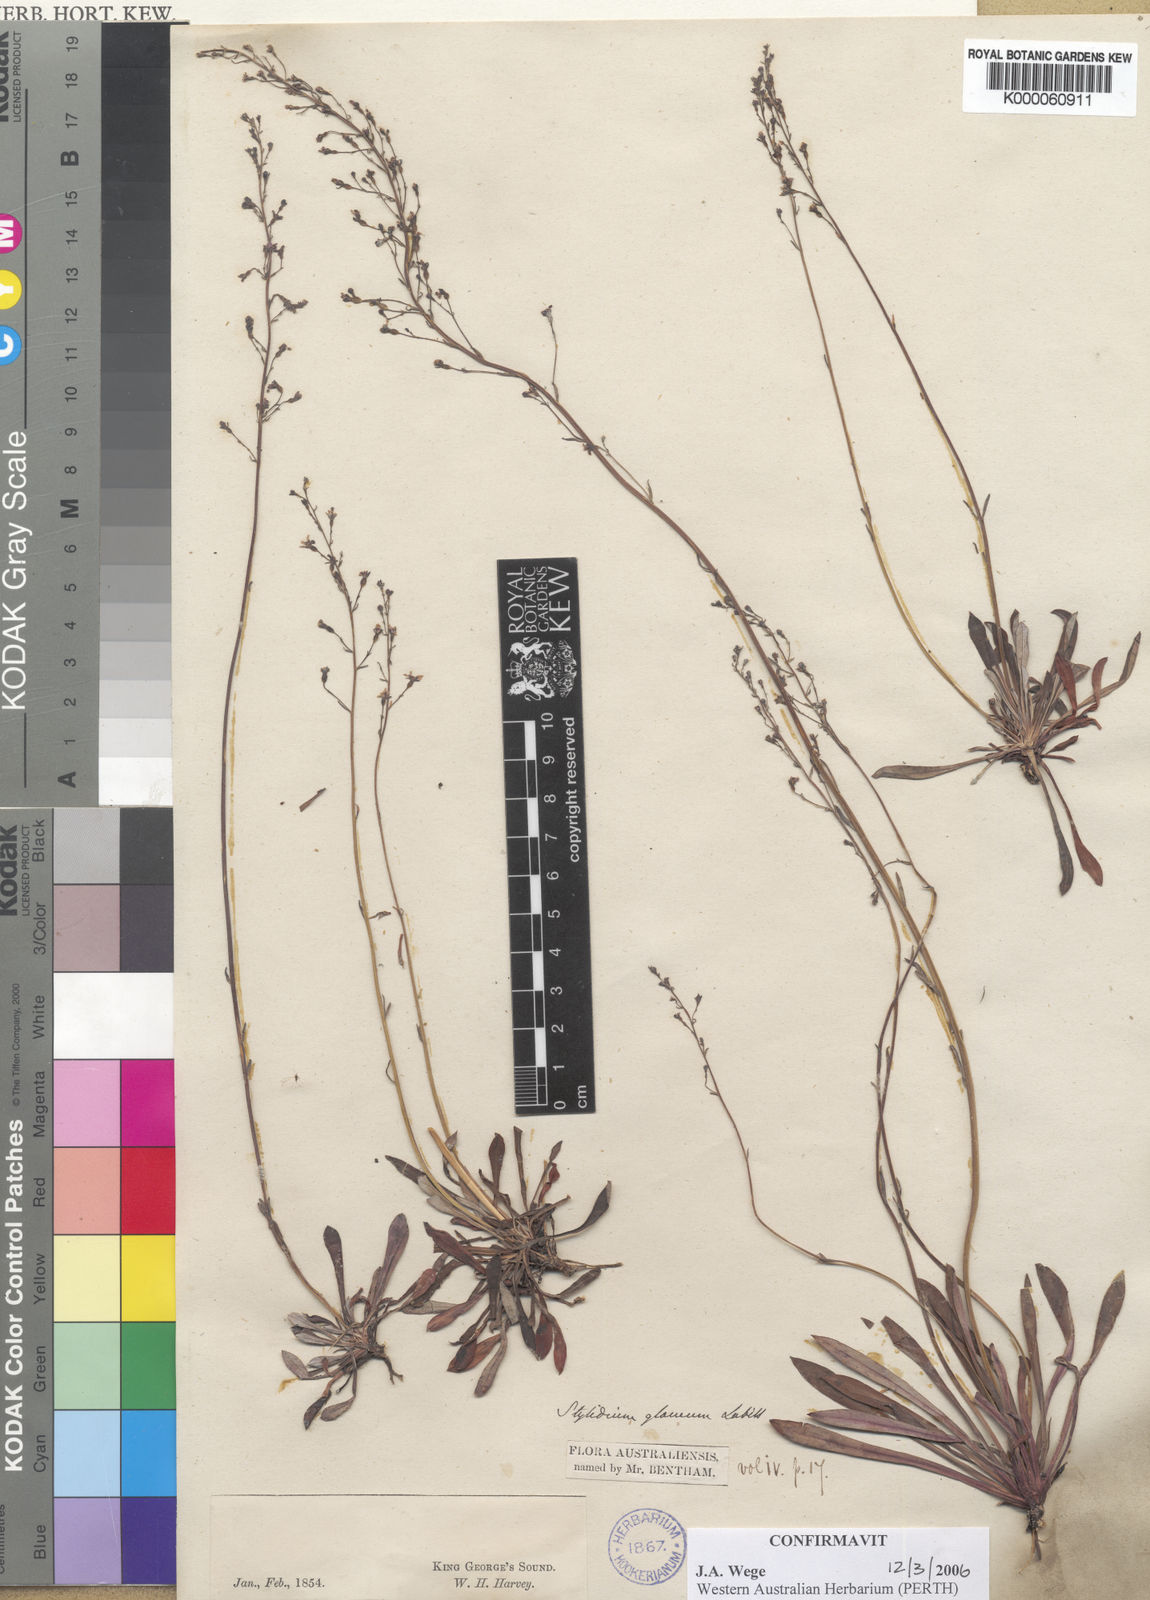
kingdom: Plantae
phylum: Tracheophyta
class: Magnoliopsida
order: Asterales
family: Stylidiaceae
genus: Stylidium
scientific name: Stylidium glaucum
